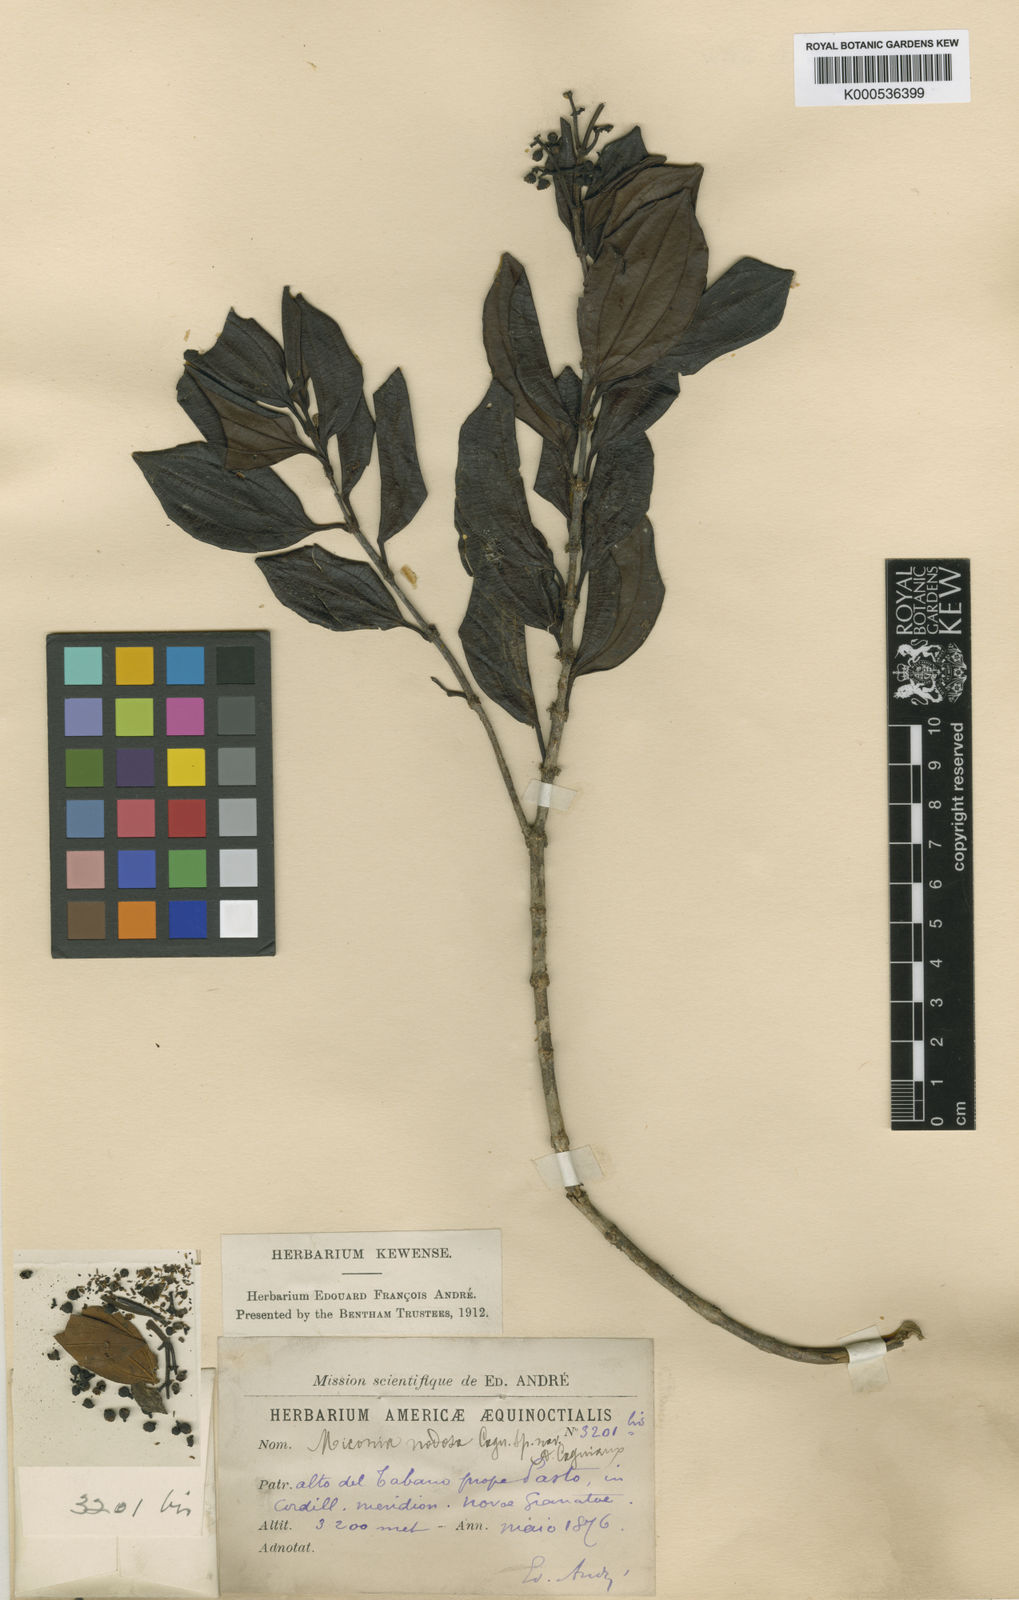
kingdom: Plantae
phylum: Tracheophyta
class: Magnoliopsida
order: Myrtales
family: Melastomataceae
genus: Miconia
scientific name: Miconia nodosa
